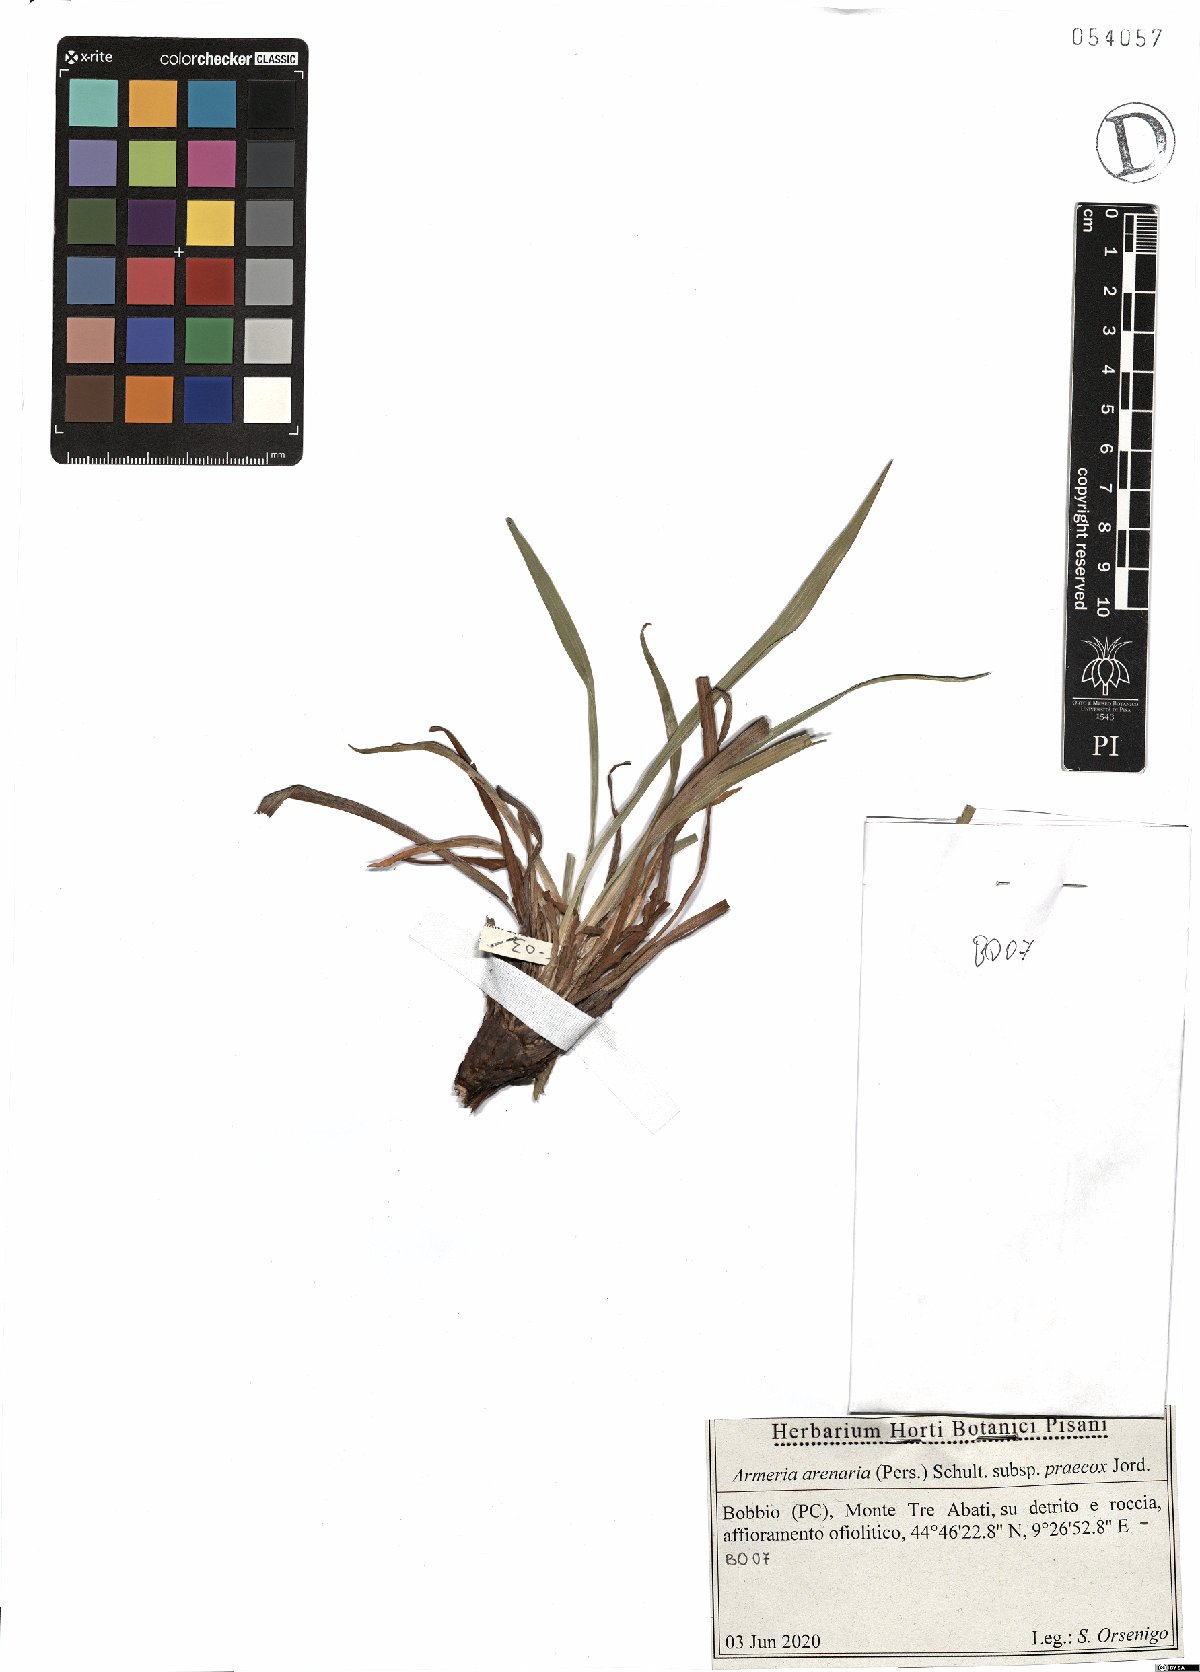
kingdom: Plantae
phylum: Tracheophyta
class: Magnoliopsida
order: Caryophyllales
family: Plumbaginaceae
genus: Armeria
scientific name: Armeria arenaria
